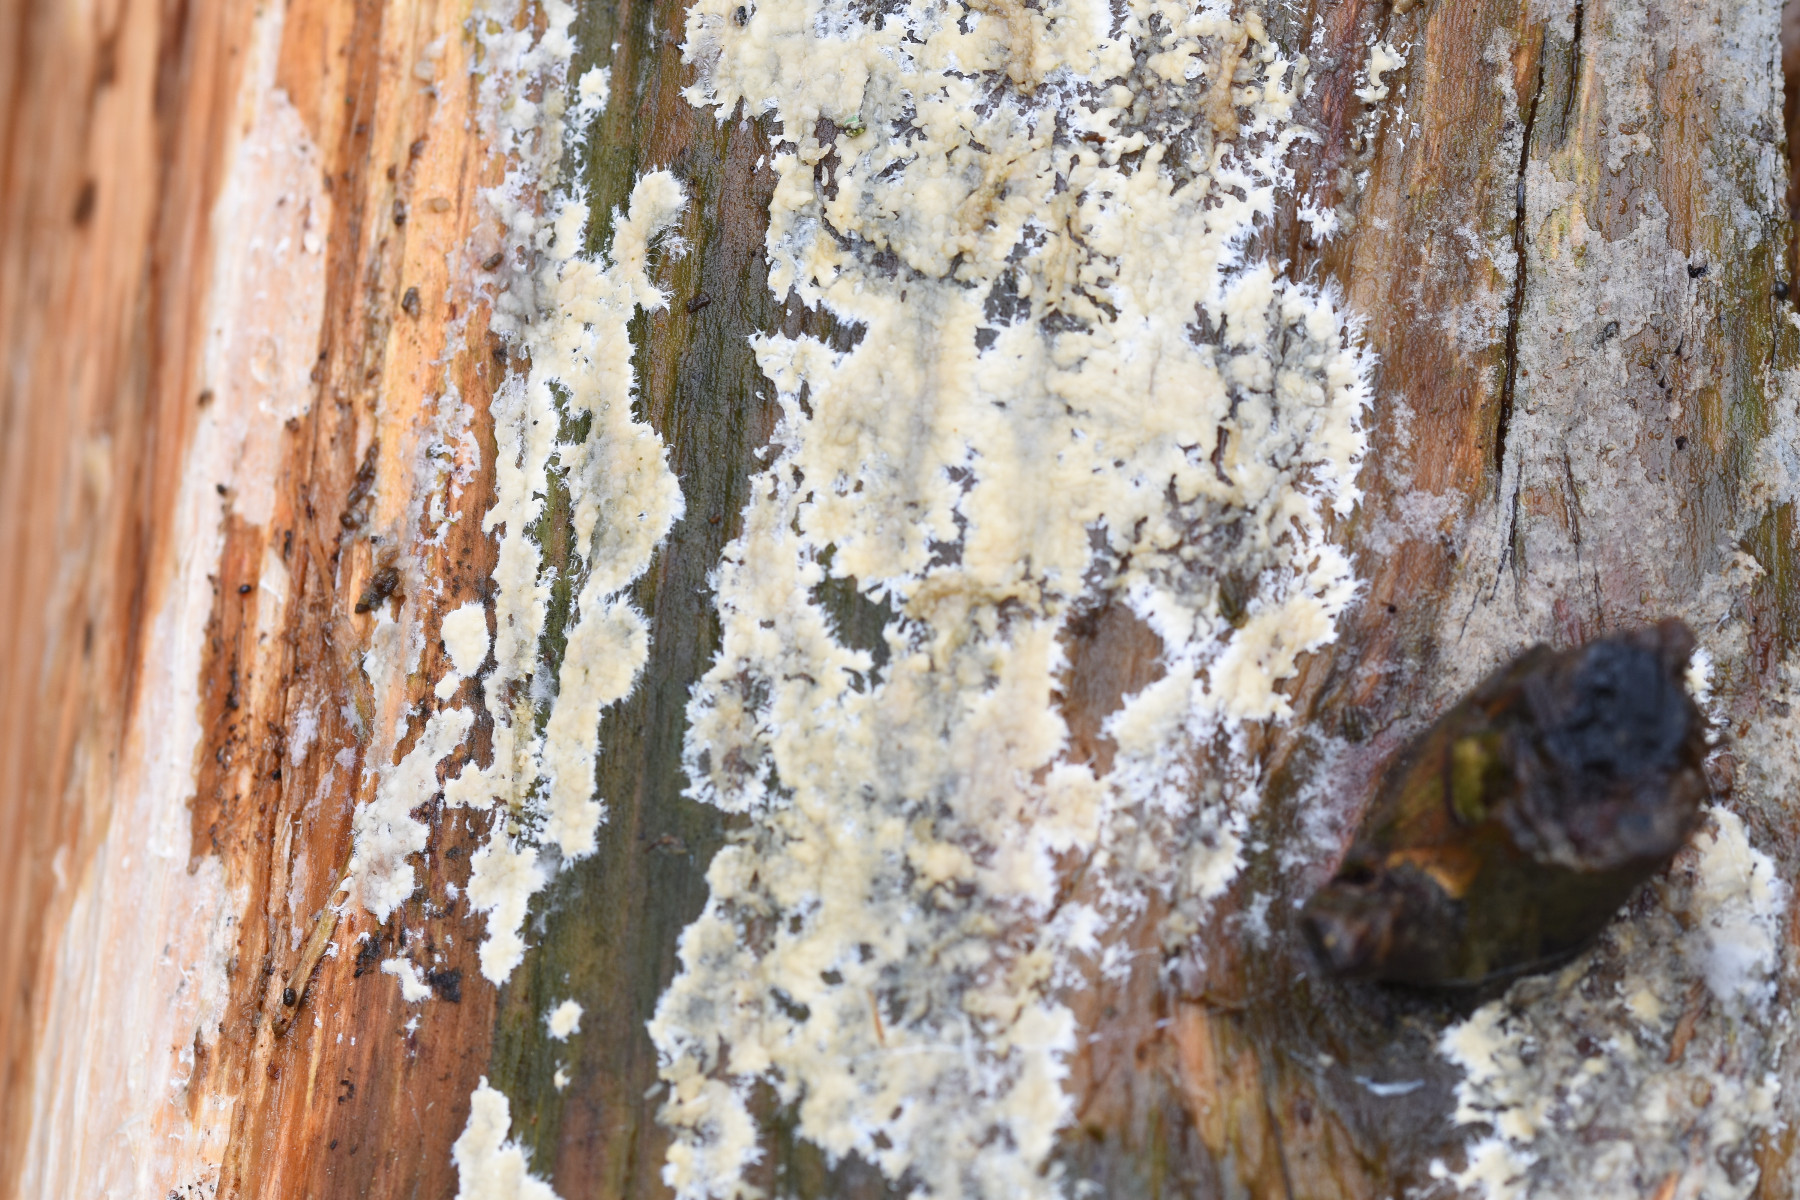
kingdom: Fungi
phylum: Basidiomycota
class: Agaricomycetes
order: Russulales
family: Peniophoraceae
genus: Gloiothele
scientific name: Gloiothele citrina
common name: citronskorpe
